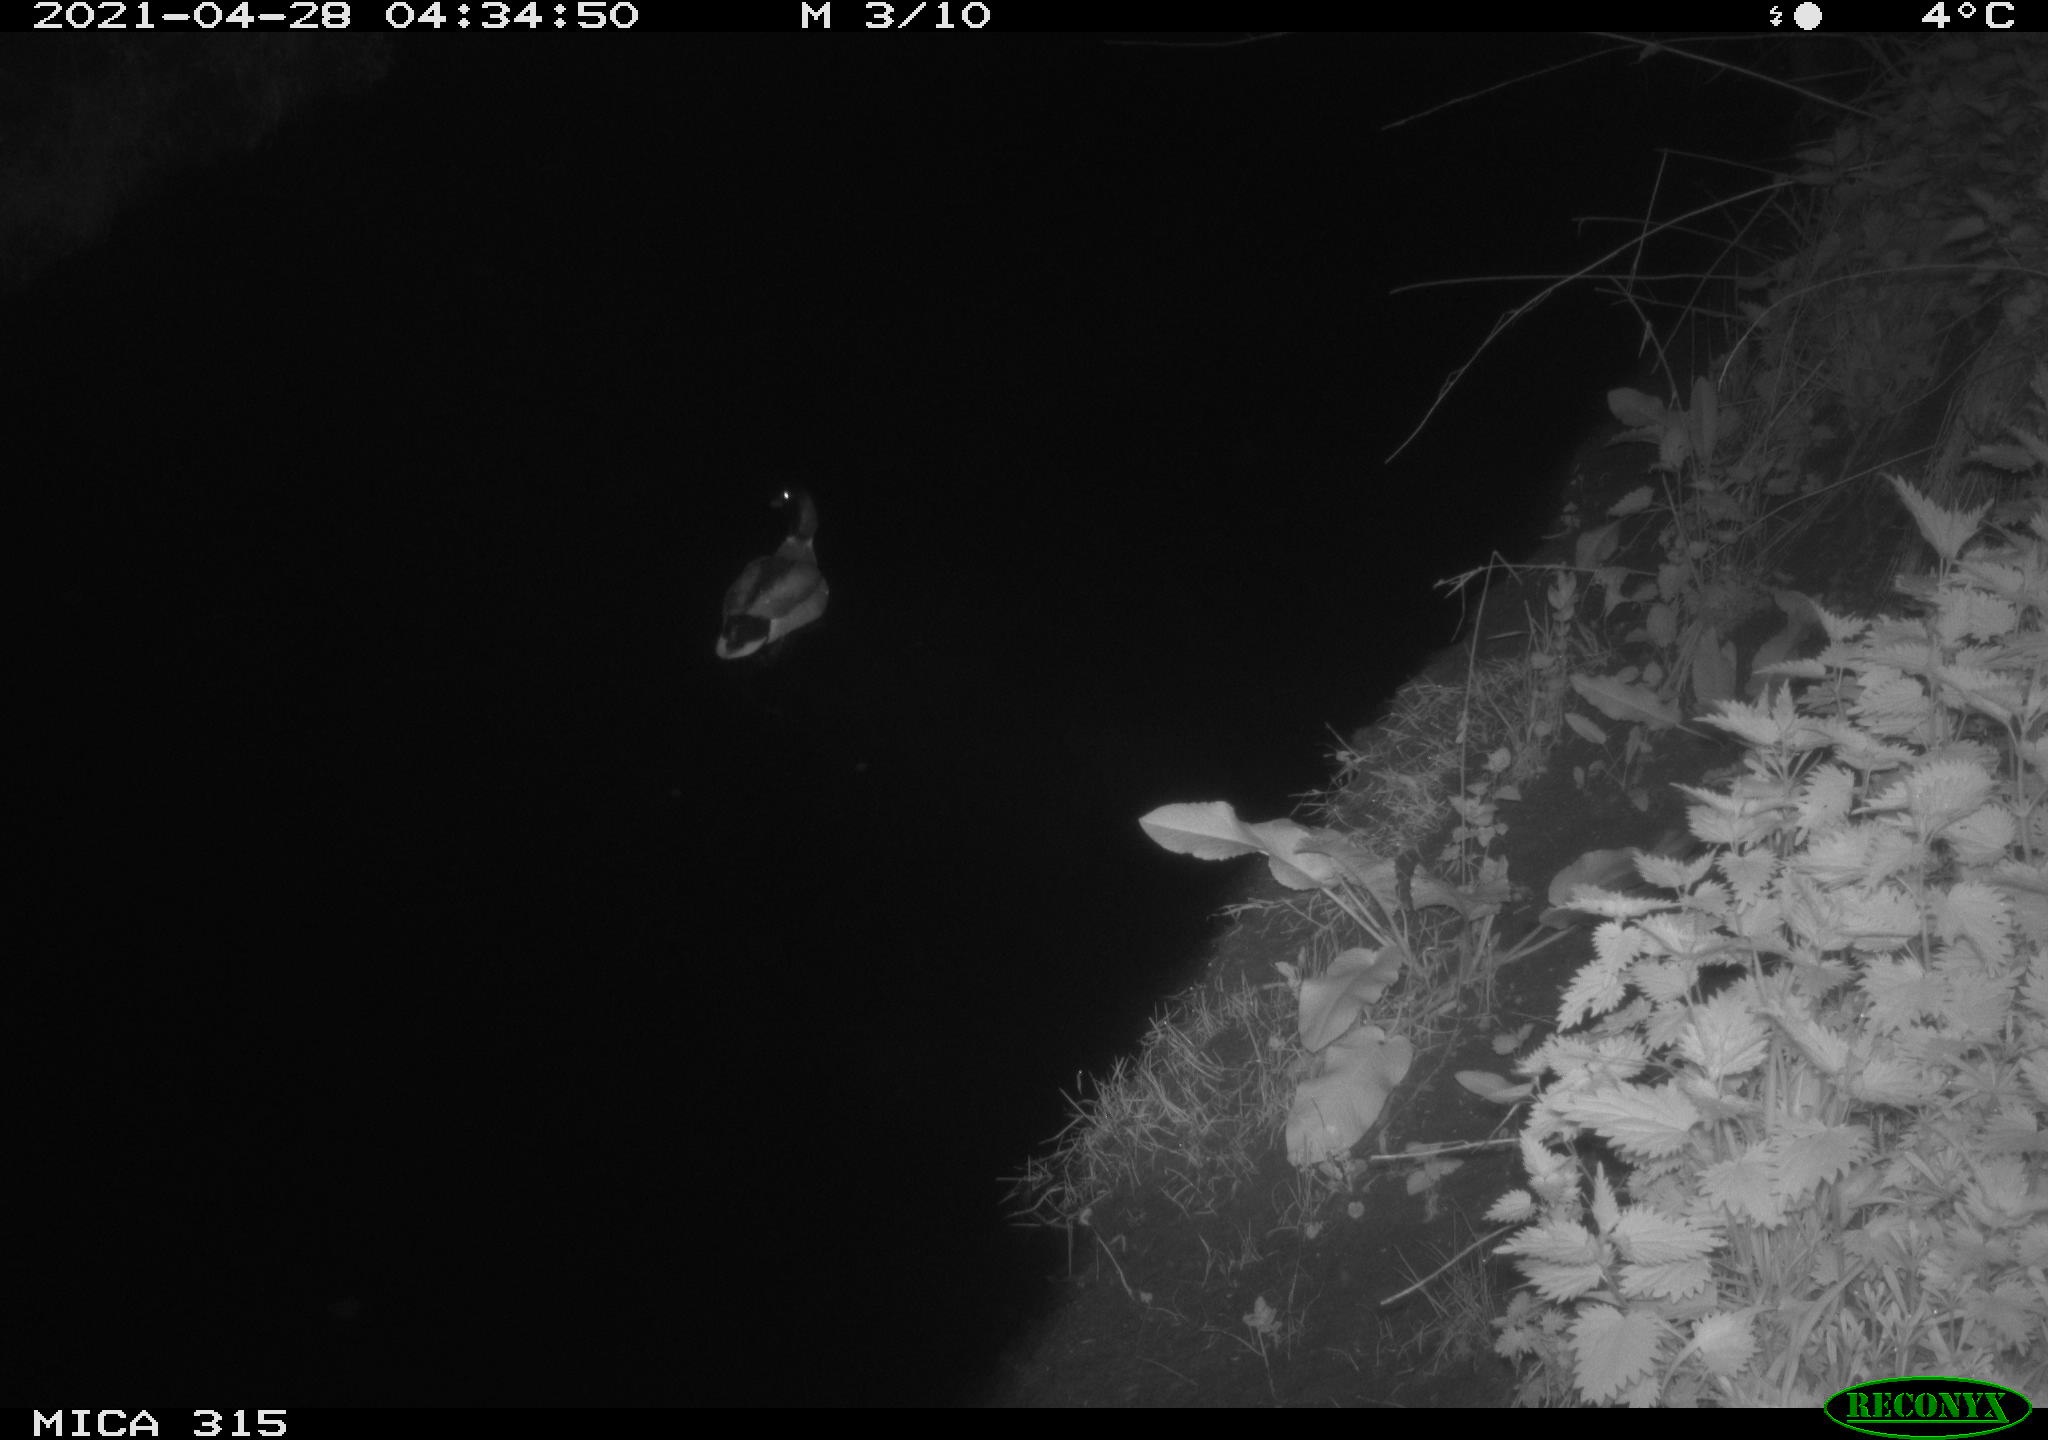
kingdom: Animalia
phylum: Chordata
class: Aves
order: Anseriformes
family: Anatidae
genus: Anas
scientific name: Anas
